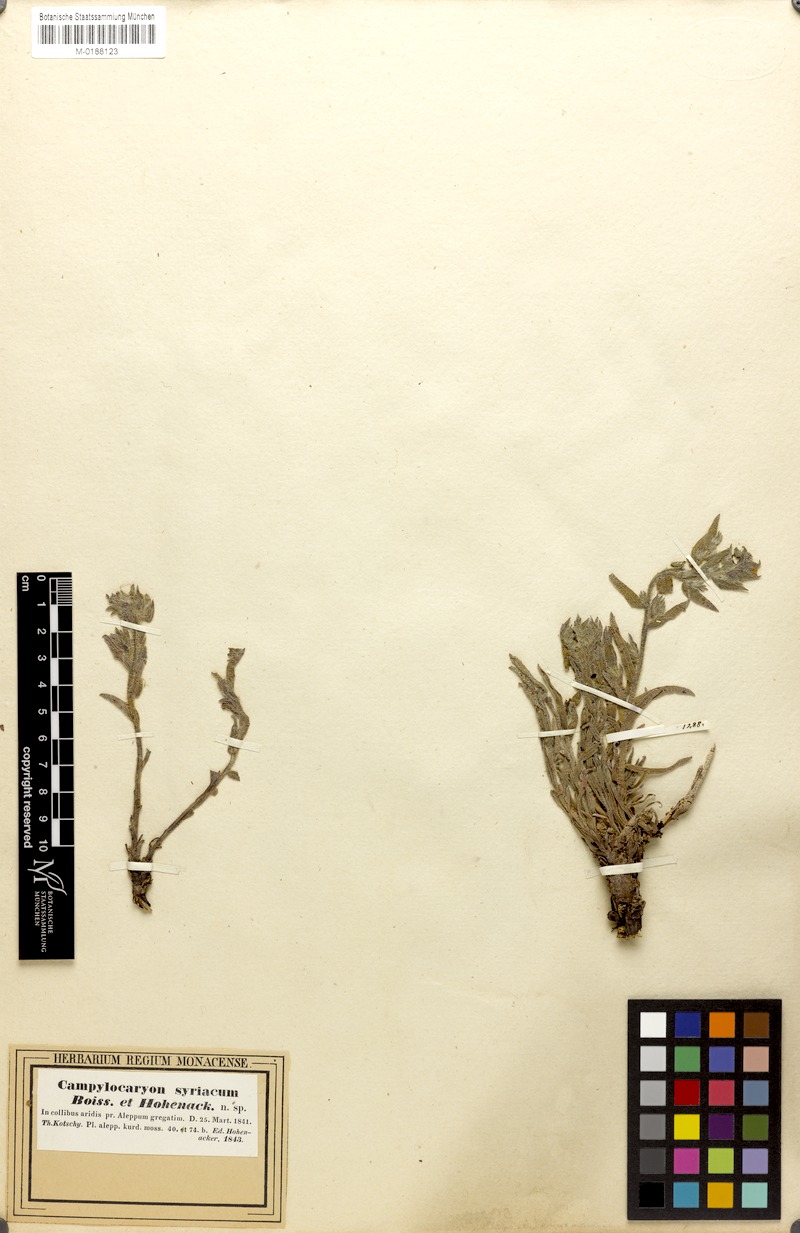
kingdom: Plantae
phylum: Tracheophyta
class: Magnoliopsida
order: Boraginales
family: Boraginaceae
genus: Alkanna
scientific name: Alkanna strigosa
